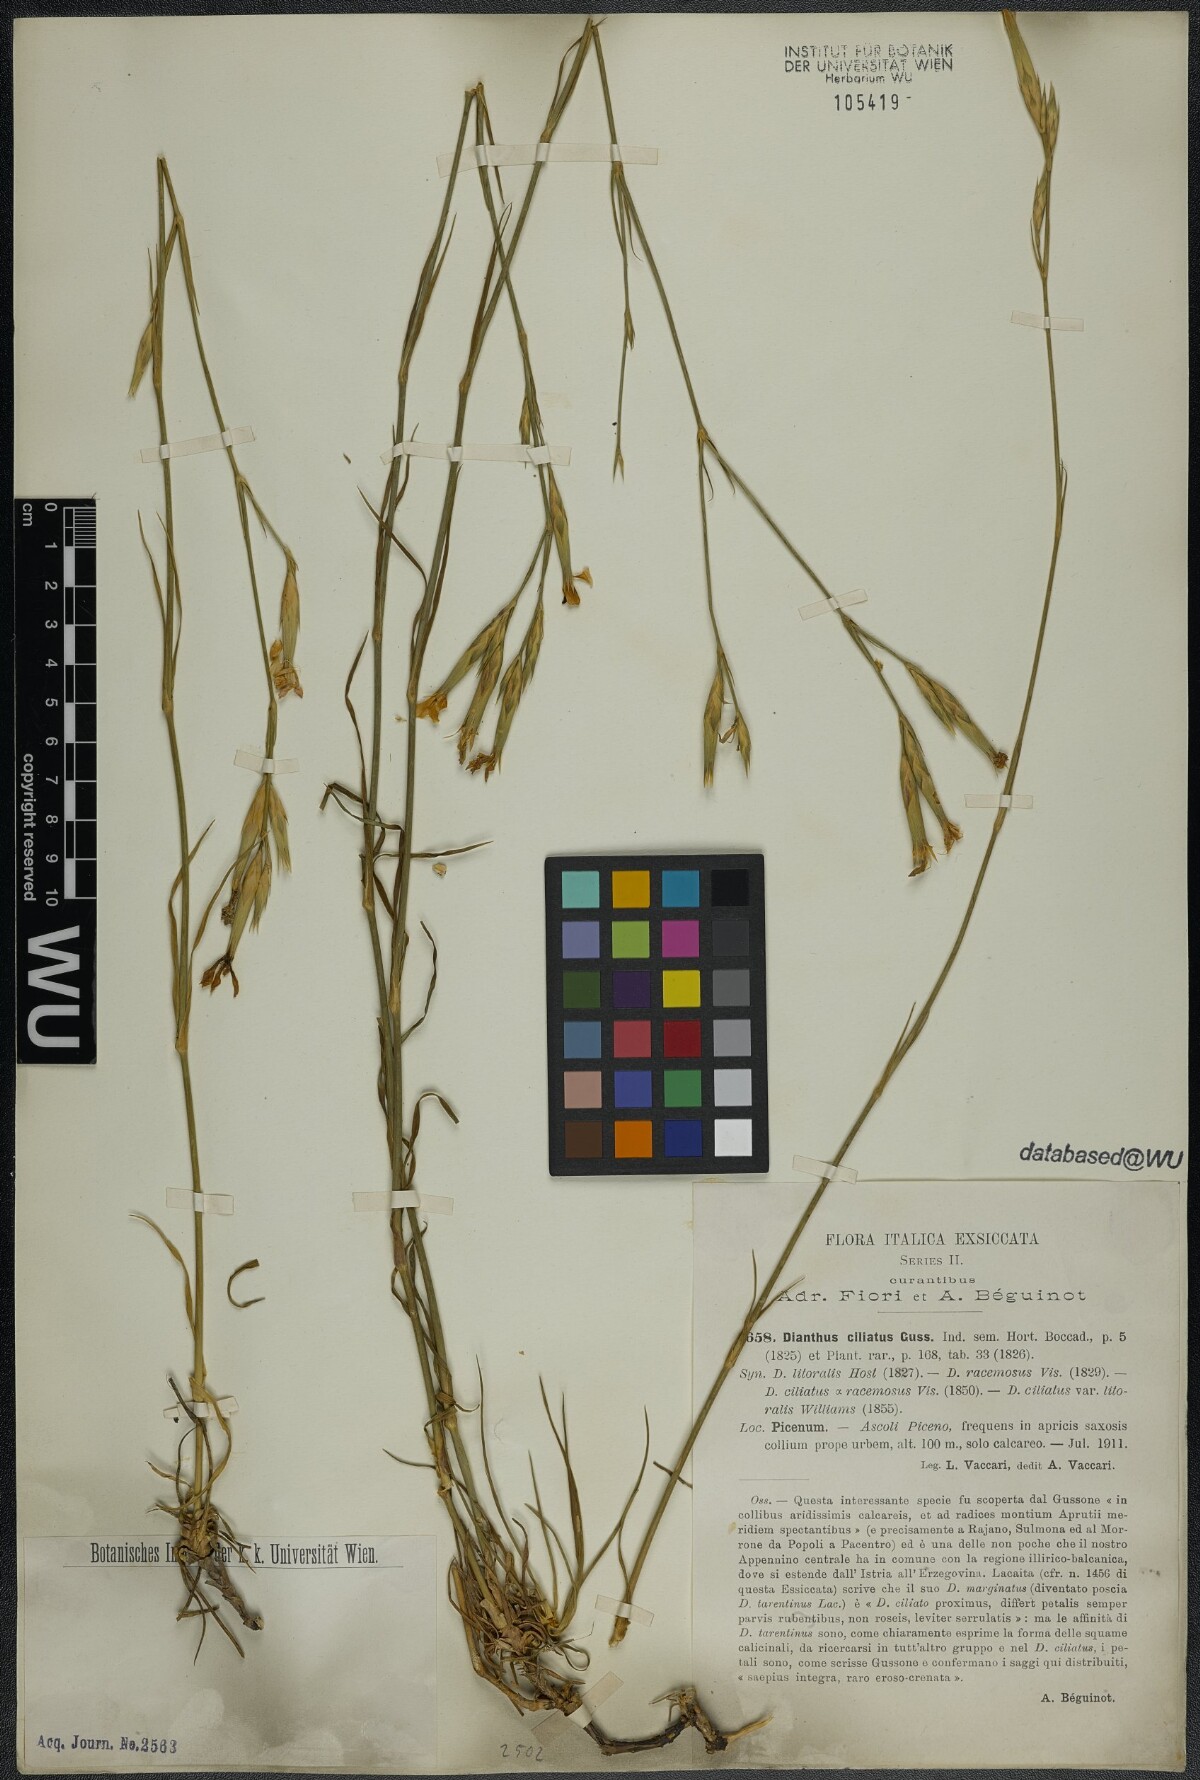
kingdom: Plantae
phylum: Tracheophyta
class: Magnoliopsida
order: Caryophyllales
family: Caryophyllaceae
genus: Dianthus
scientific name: Dianthus ciliatus
